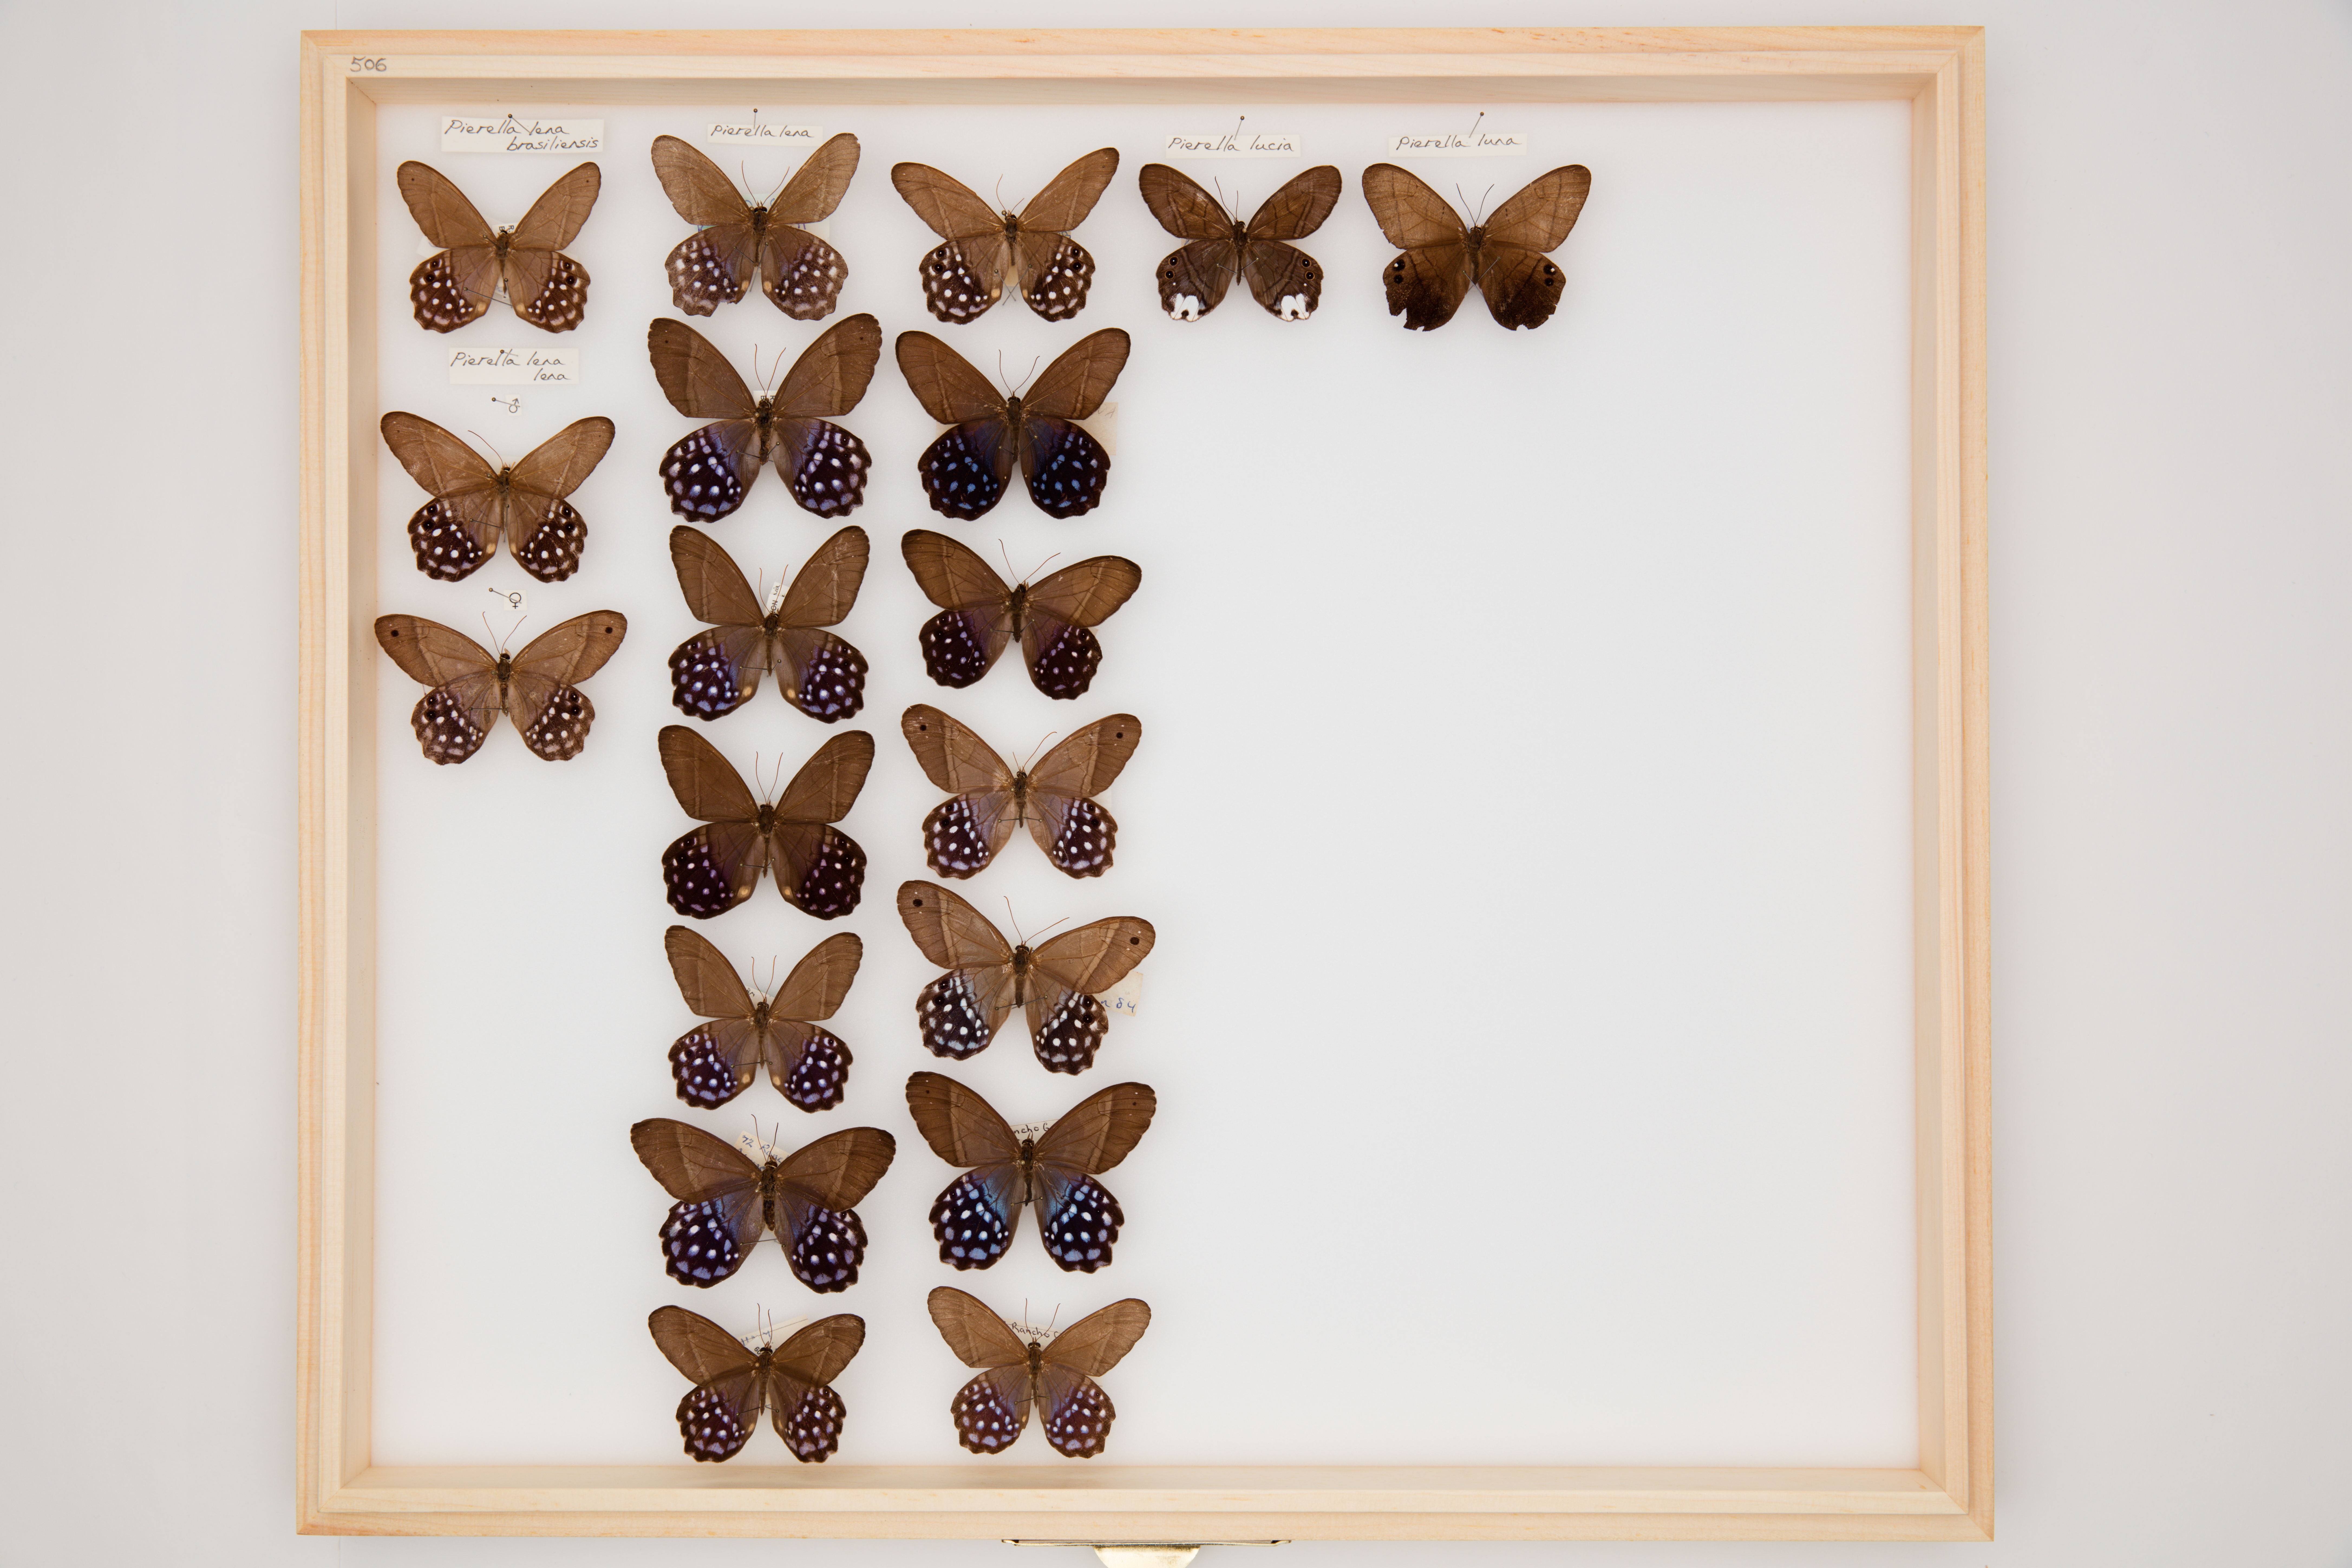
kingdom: Animalia
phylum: Arthropoda
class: Insecta
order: Lepidoptera
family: Nymphalidae
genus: Pierella
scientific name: Pierella lena
